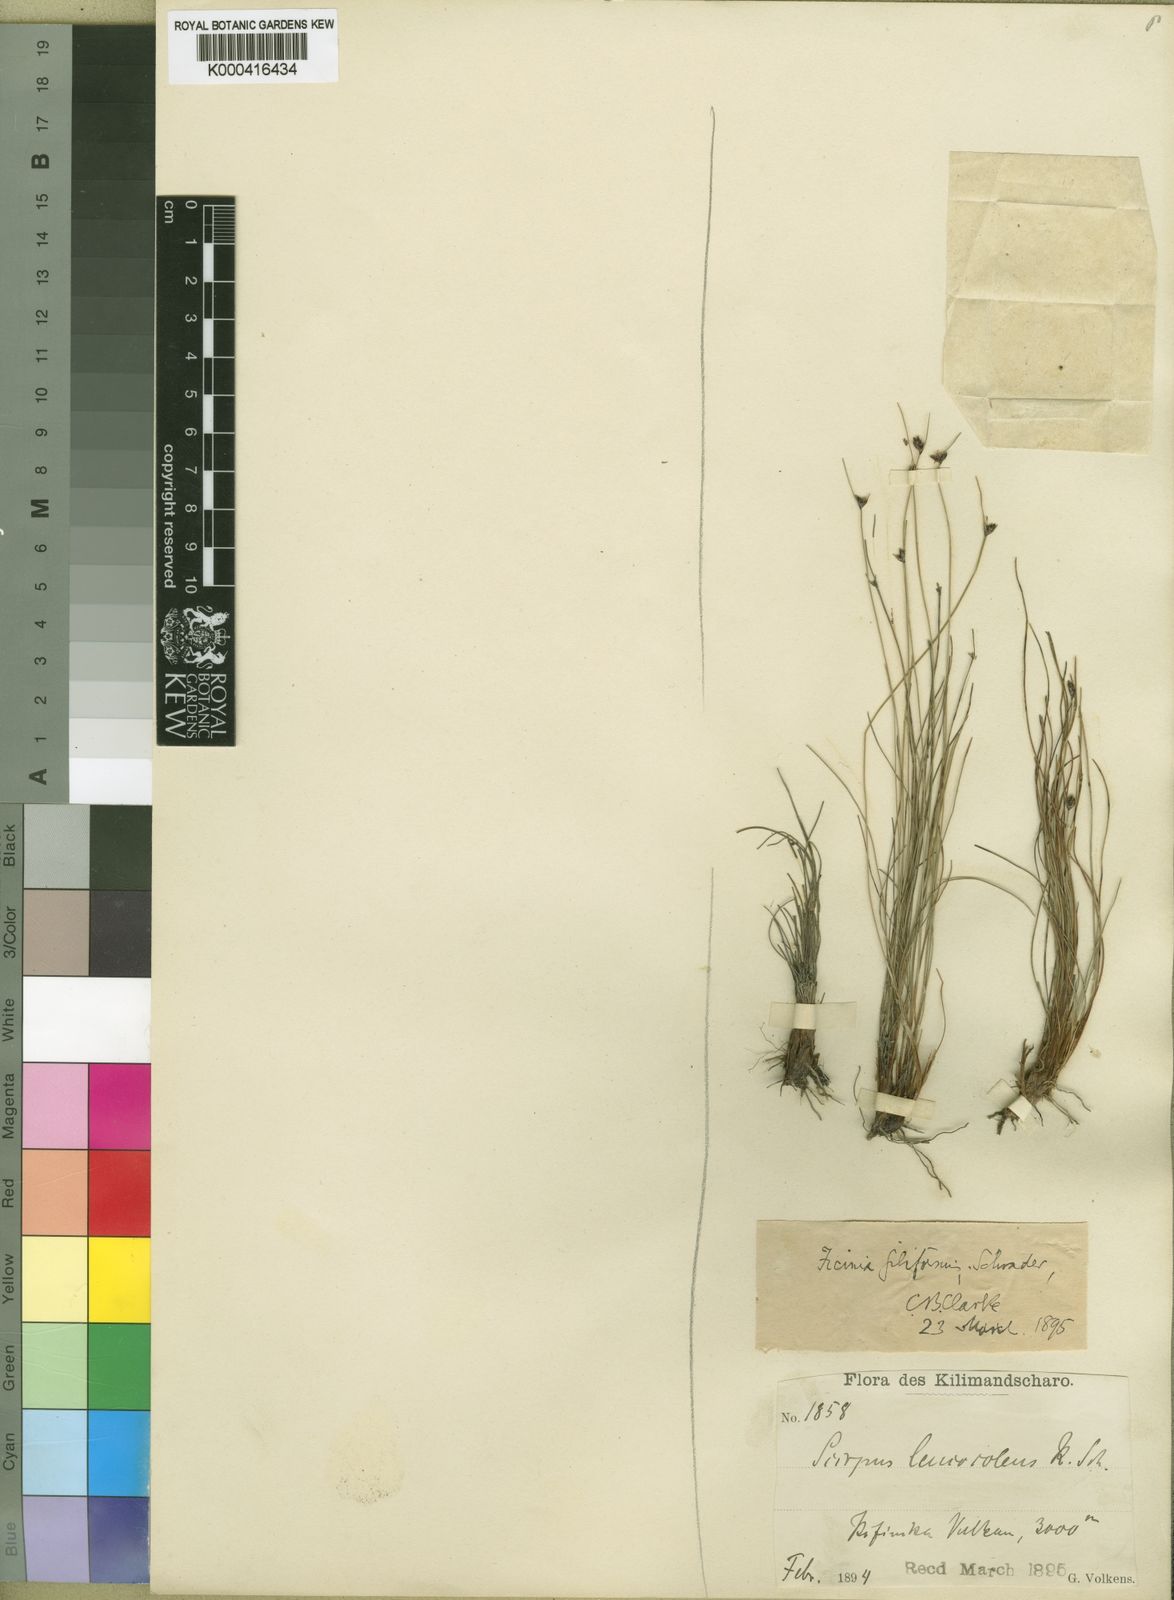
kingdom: Plantae
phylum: Tracheophyta
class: Liliopsida
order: Poales
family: Cyperaceae
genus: Ficinia
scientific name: Ficinia filiformis
